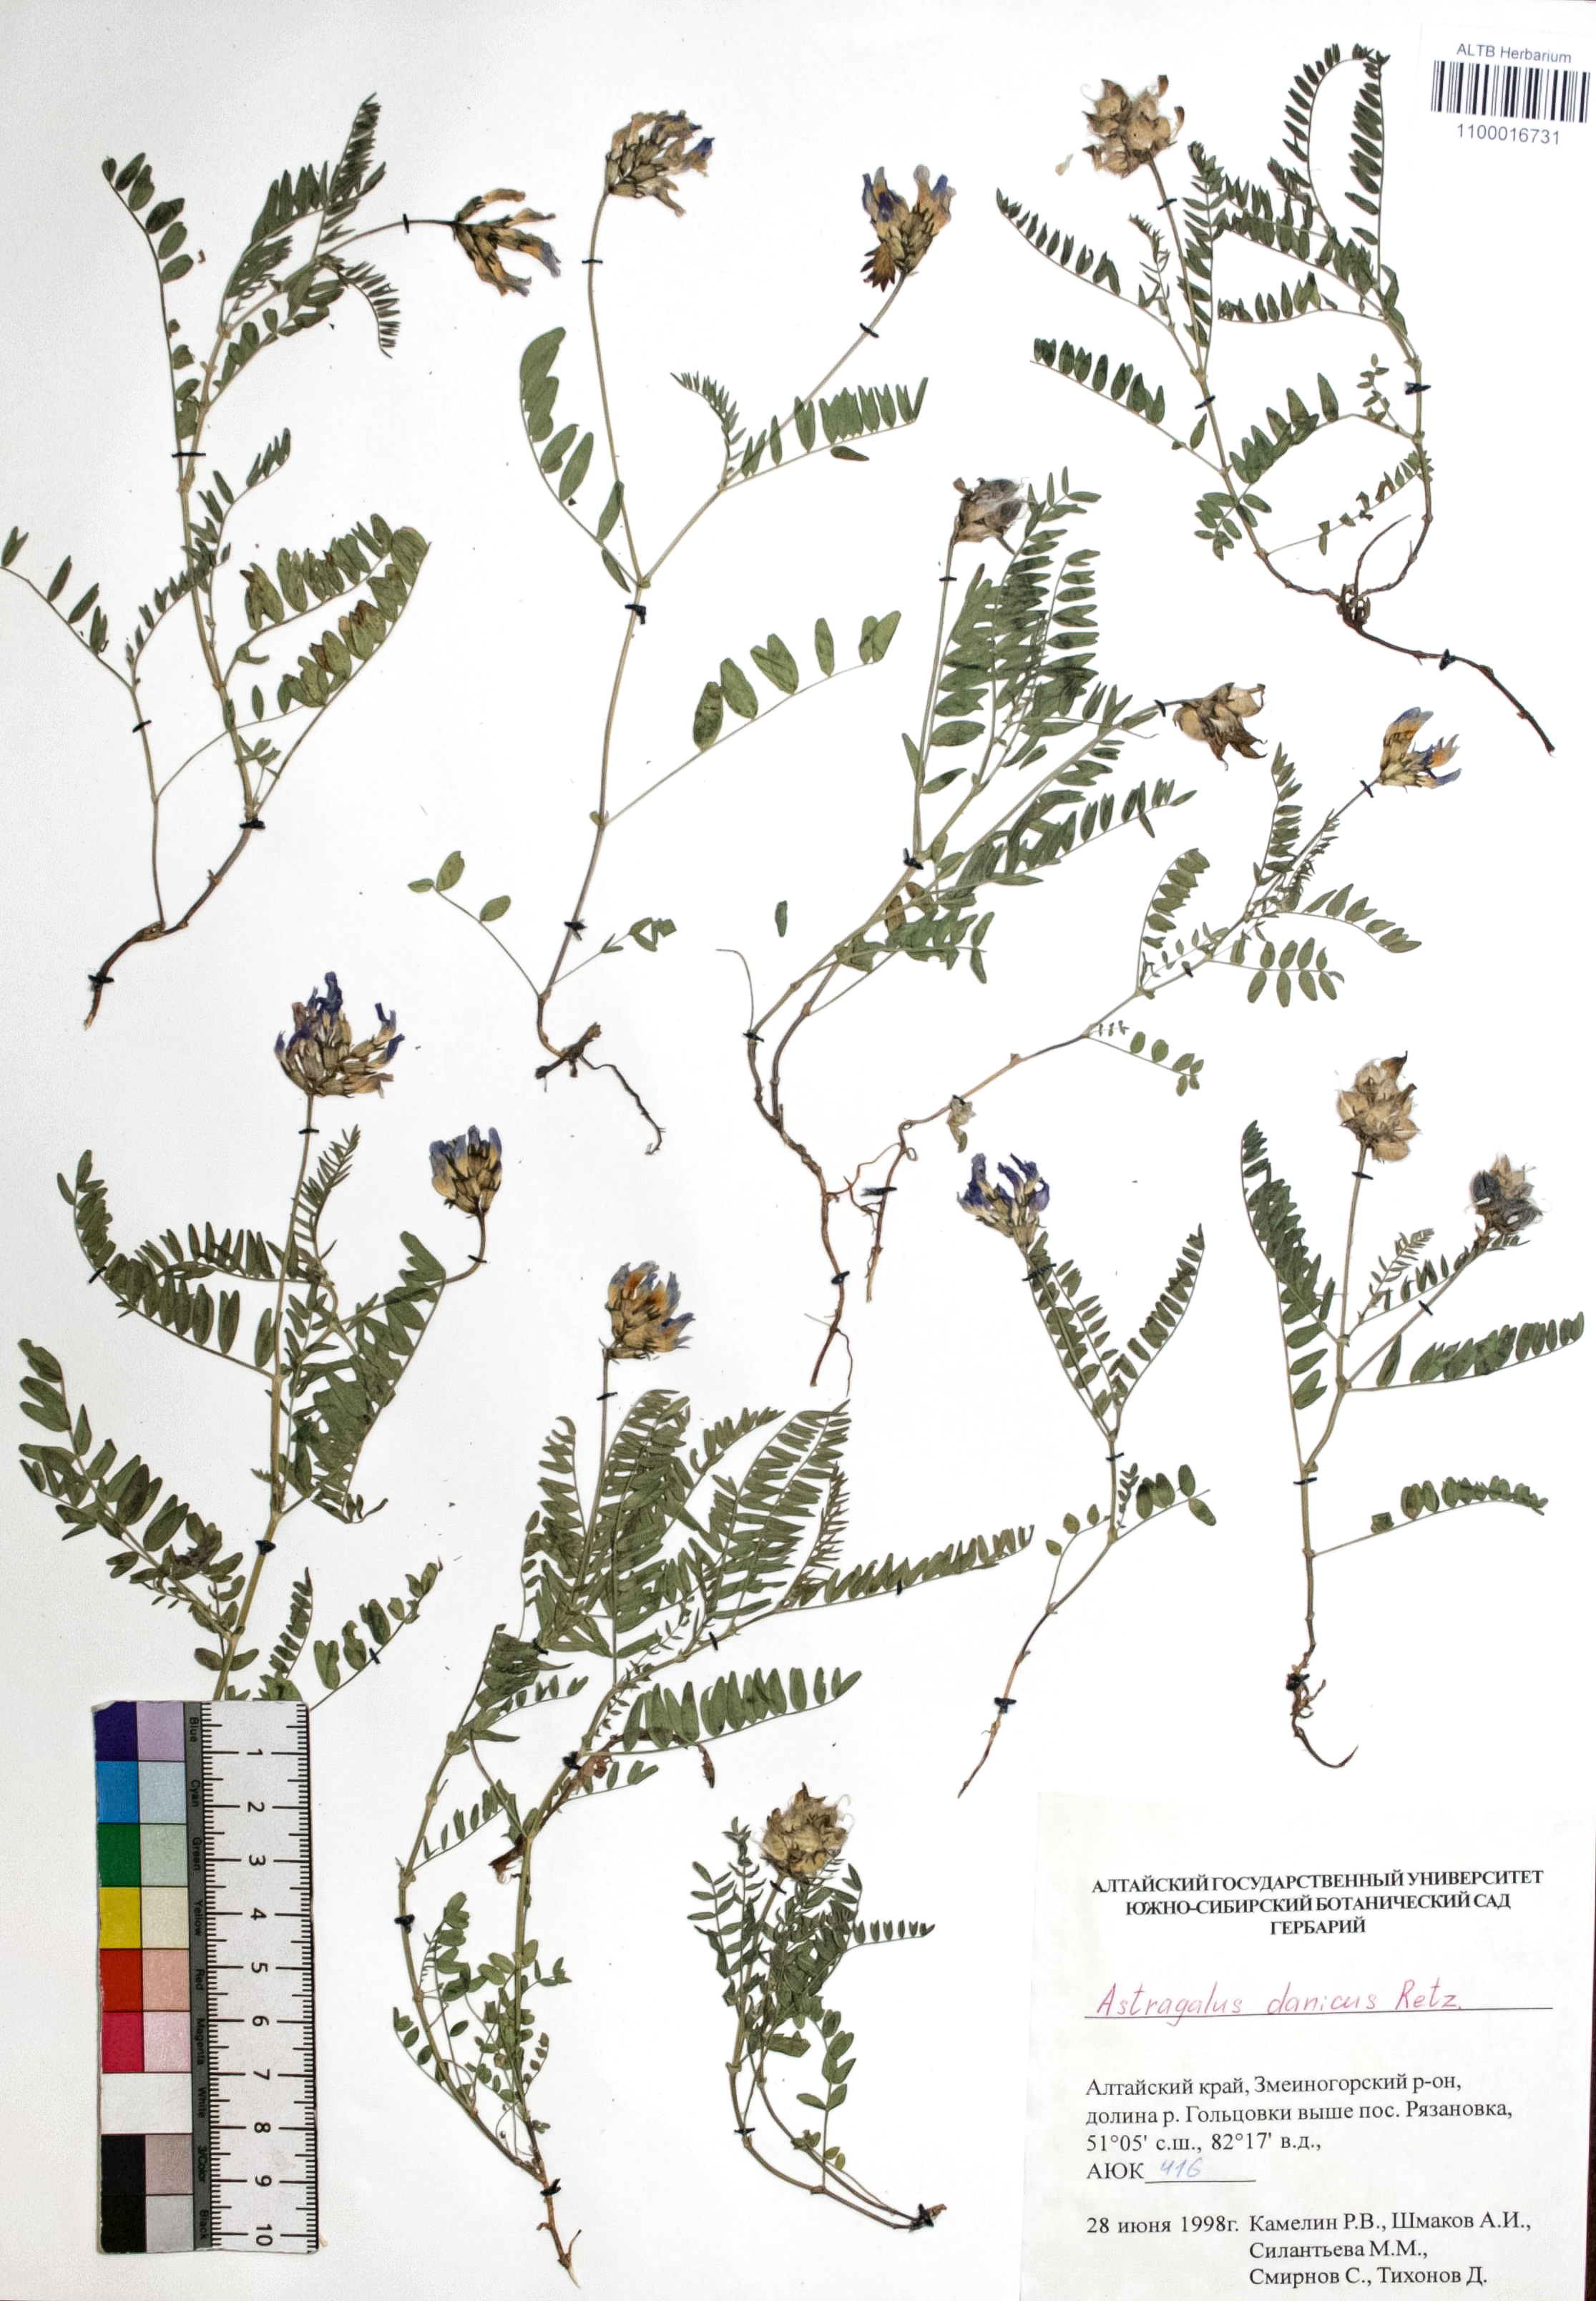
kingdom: Plantae
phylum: Tracheophyta
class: Magnoliopsida
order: Fabales
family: Fabaceae
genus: Astragalus
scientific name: Astragalus danicus
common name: Purple milk-vetch
